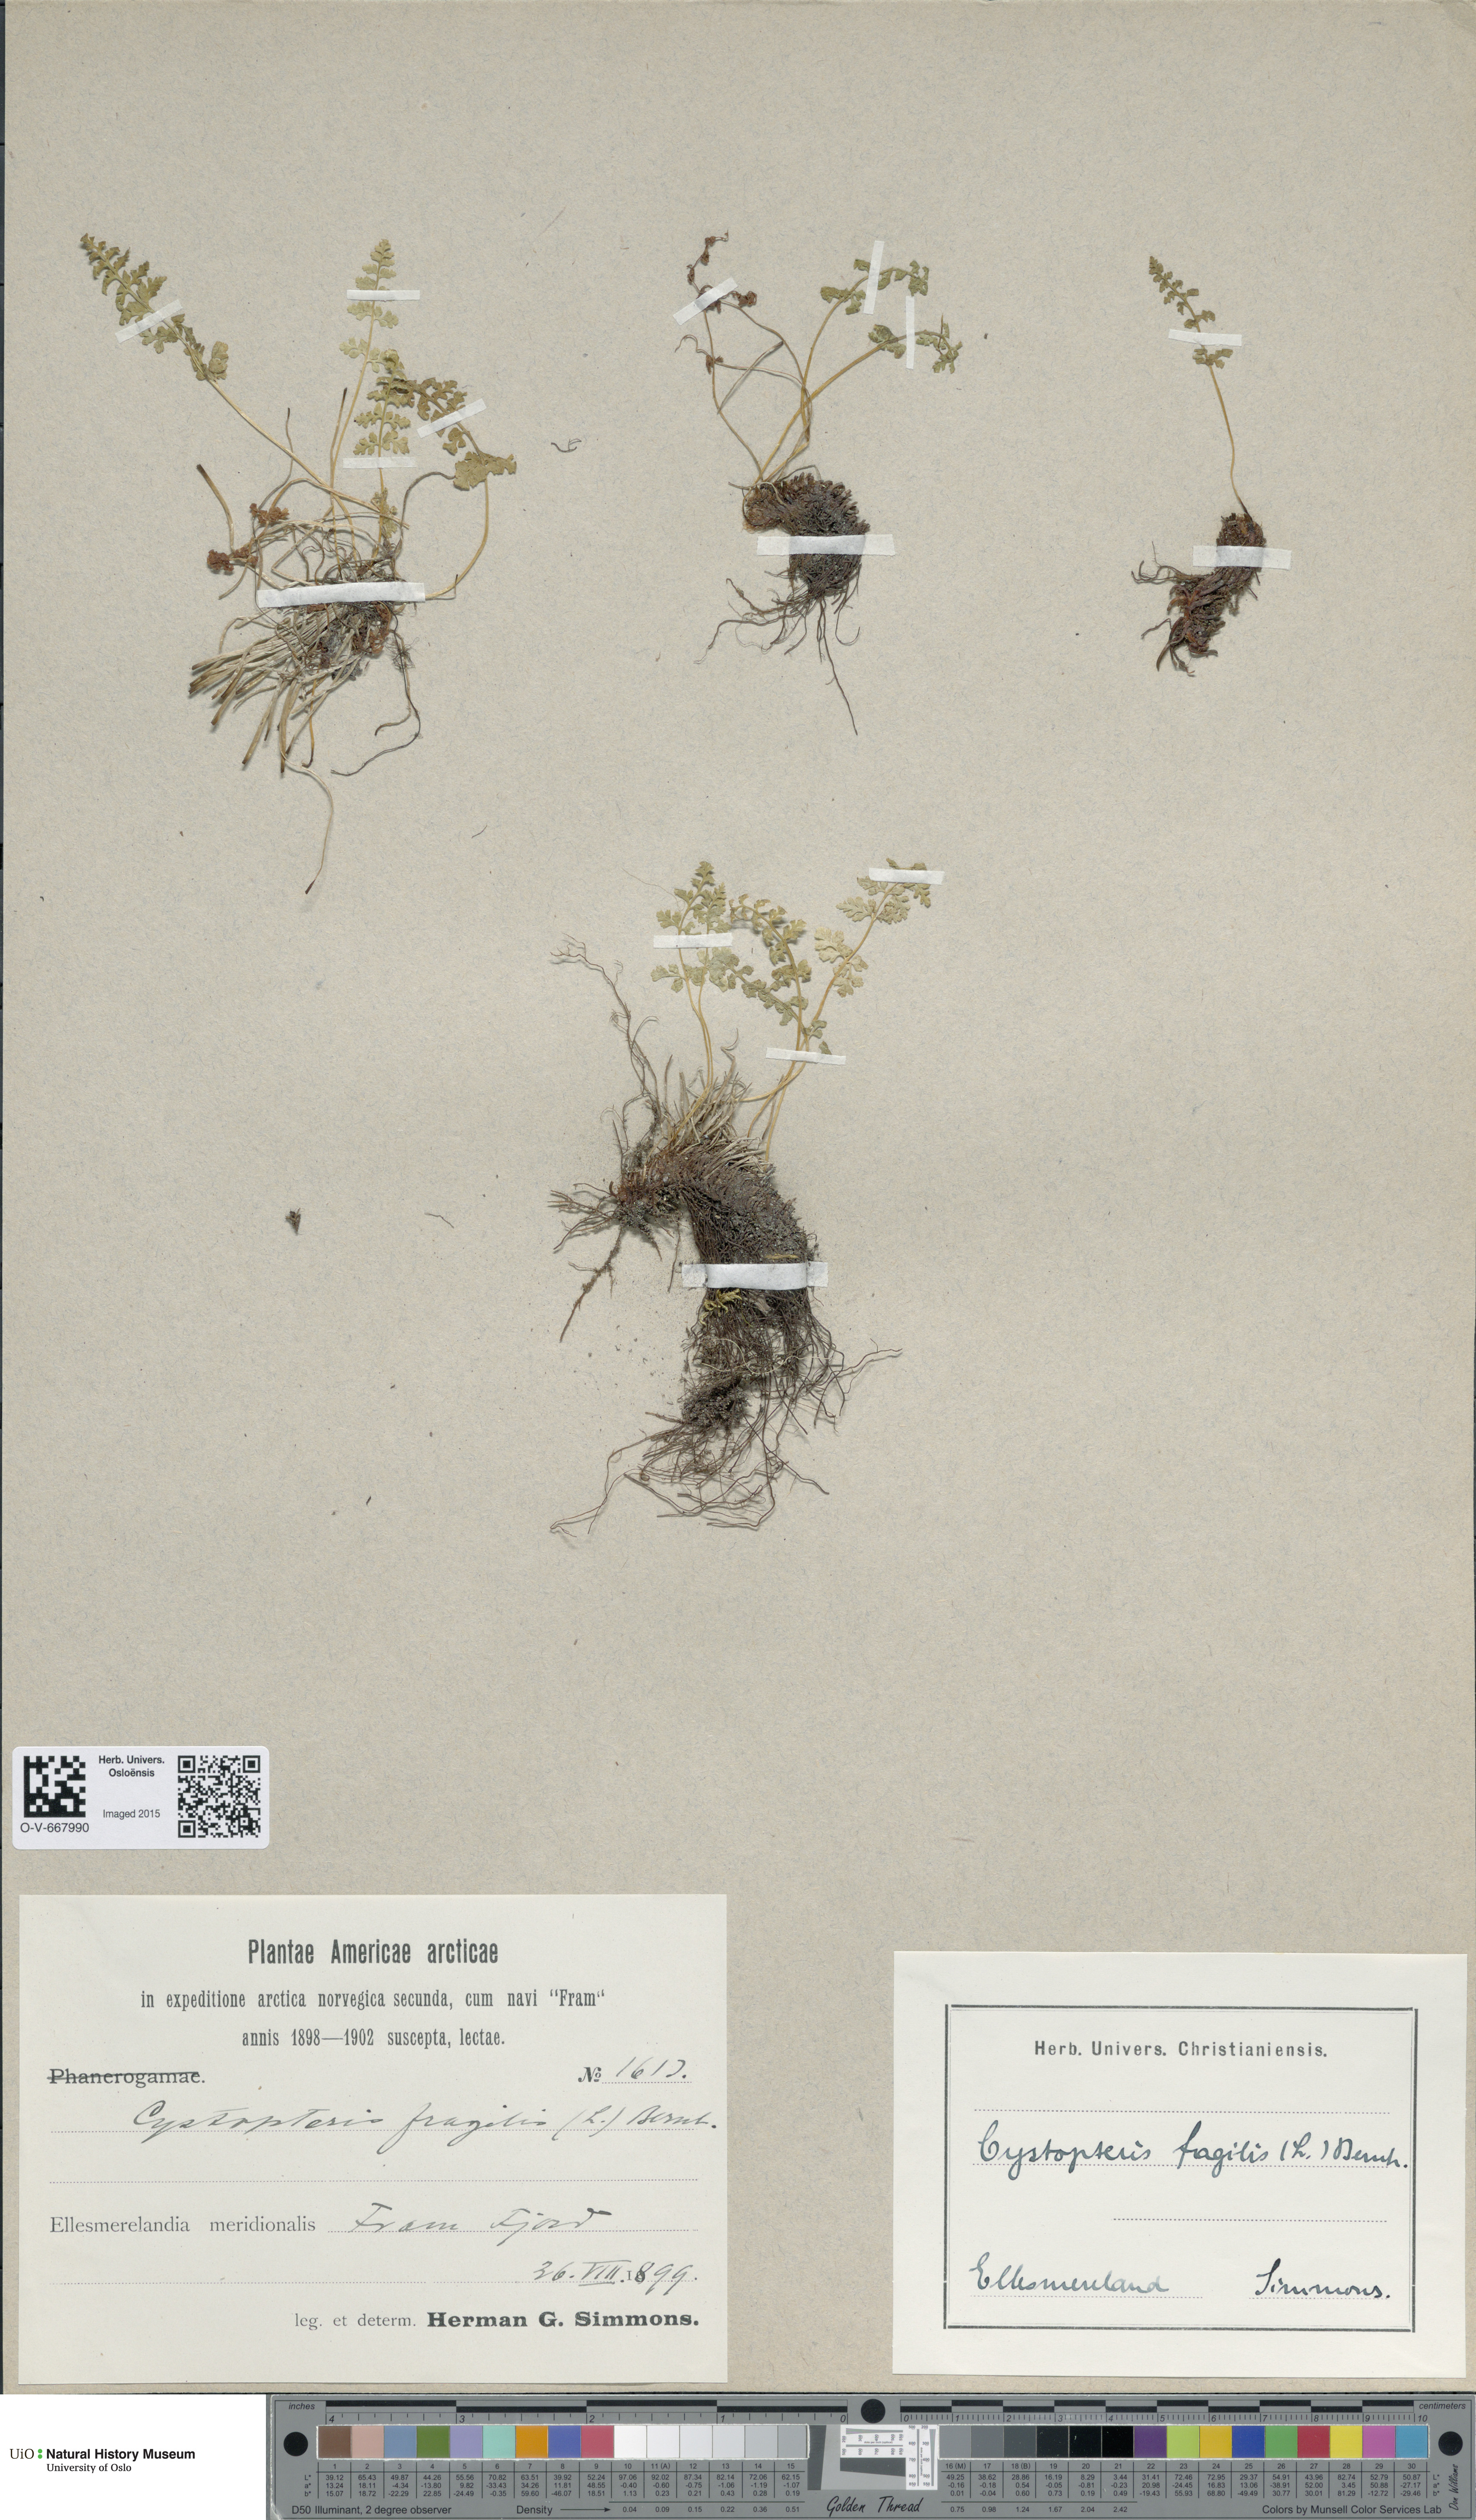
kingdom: Plantae
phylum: Tracheophyta
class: Polypodiopsida
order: Polypodiales
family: Cystopteridaceae
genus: Cystopteris
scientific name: Cystopteris fragilis
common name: Brittle bladder fern
